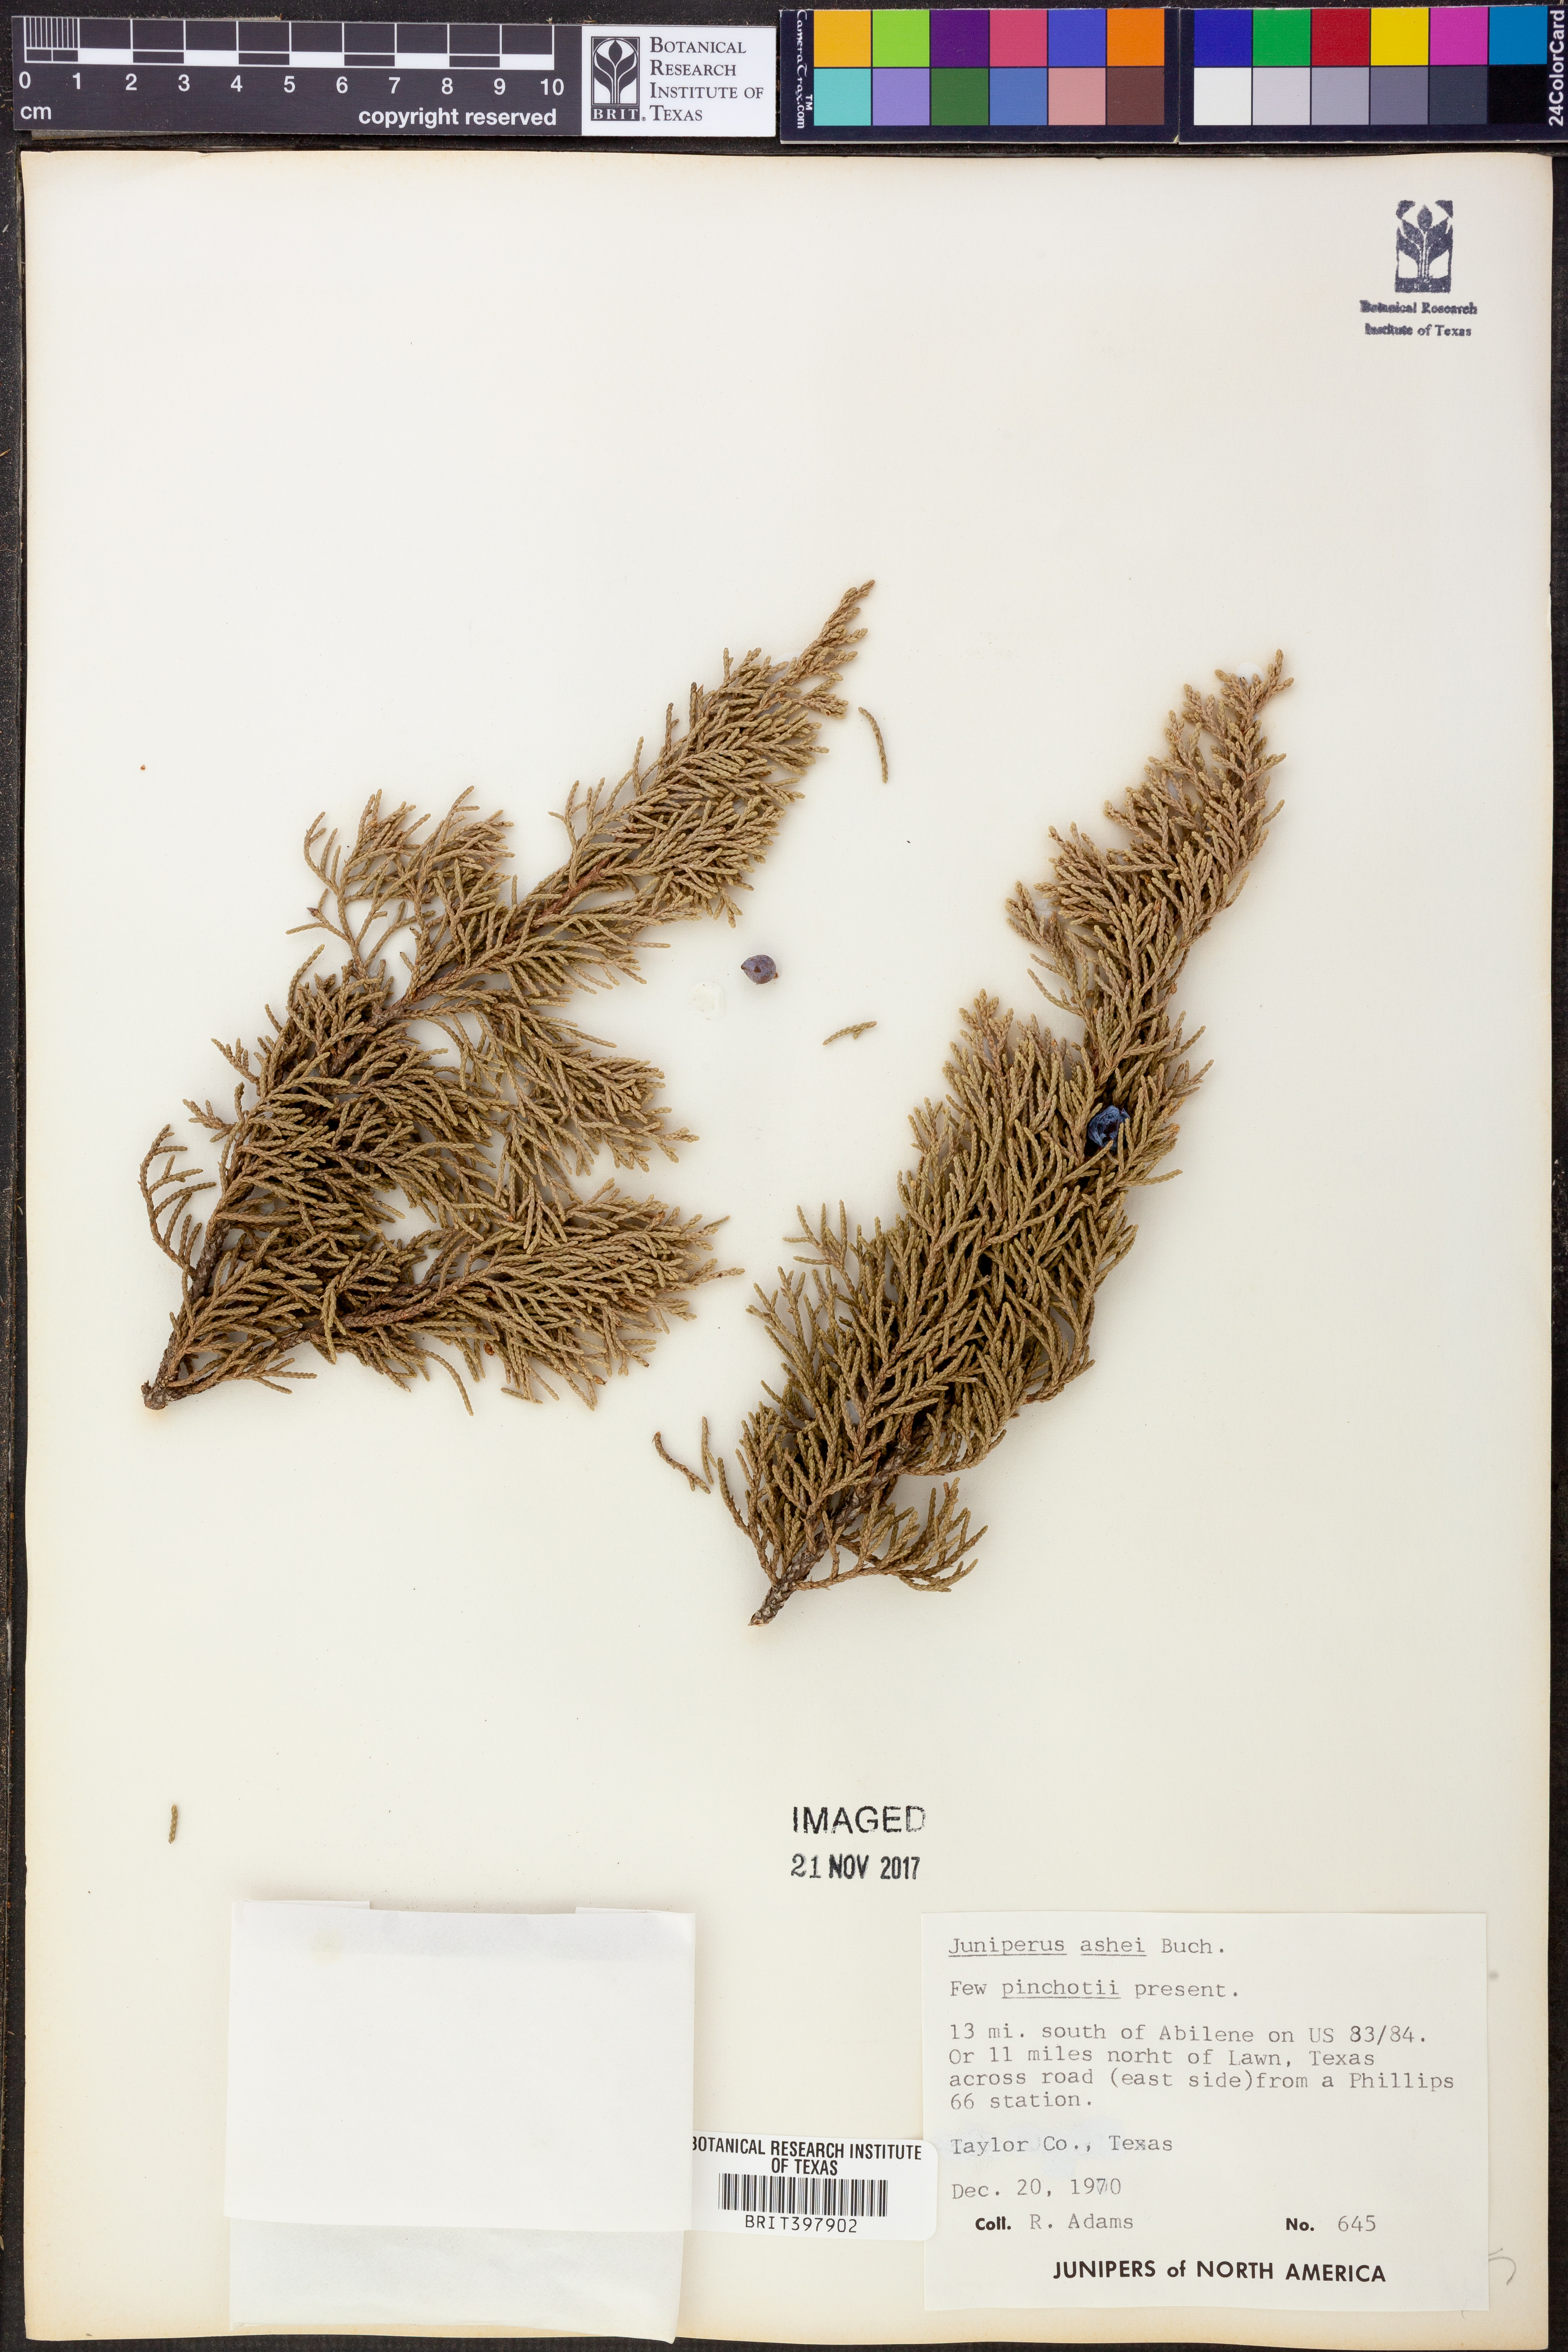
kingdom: Plantae
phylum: Tracheophyta
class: Pinopsida
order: Pinales
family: Cupressaceae
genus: Juniperus
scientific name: Juniperus ashei
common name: Mexican juniper
